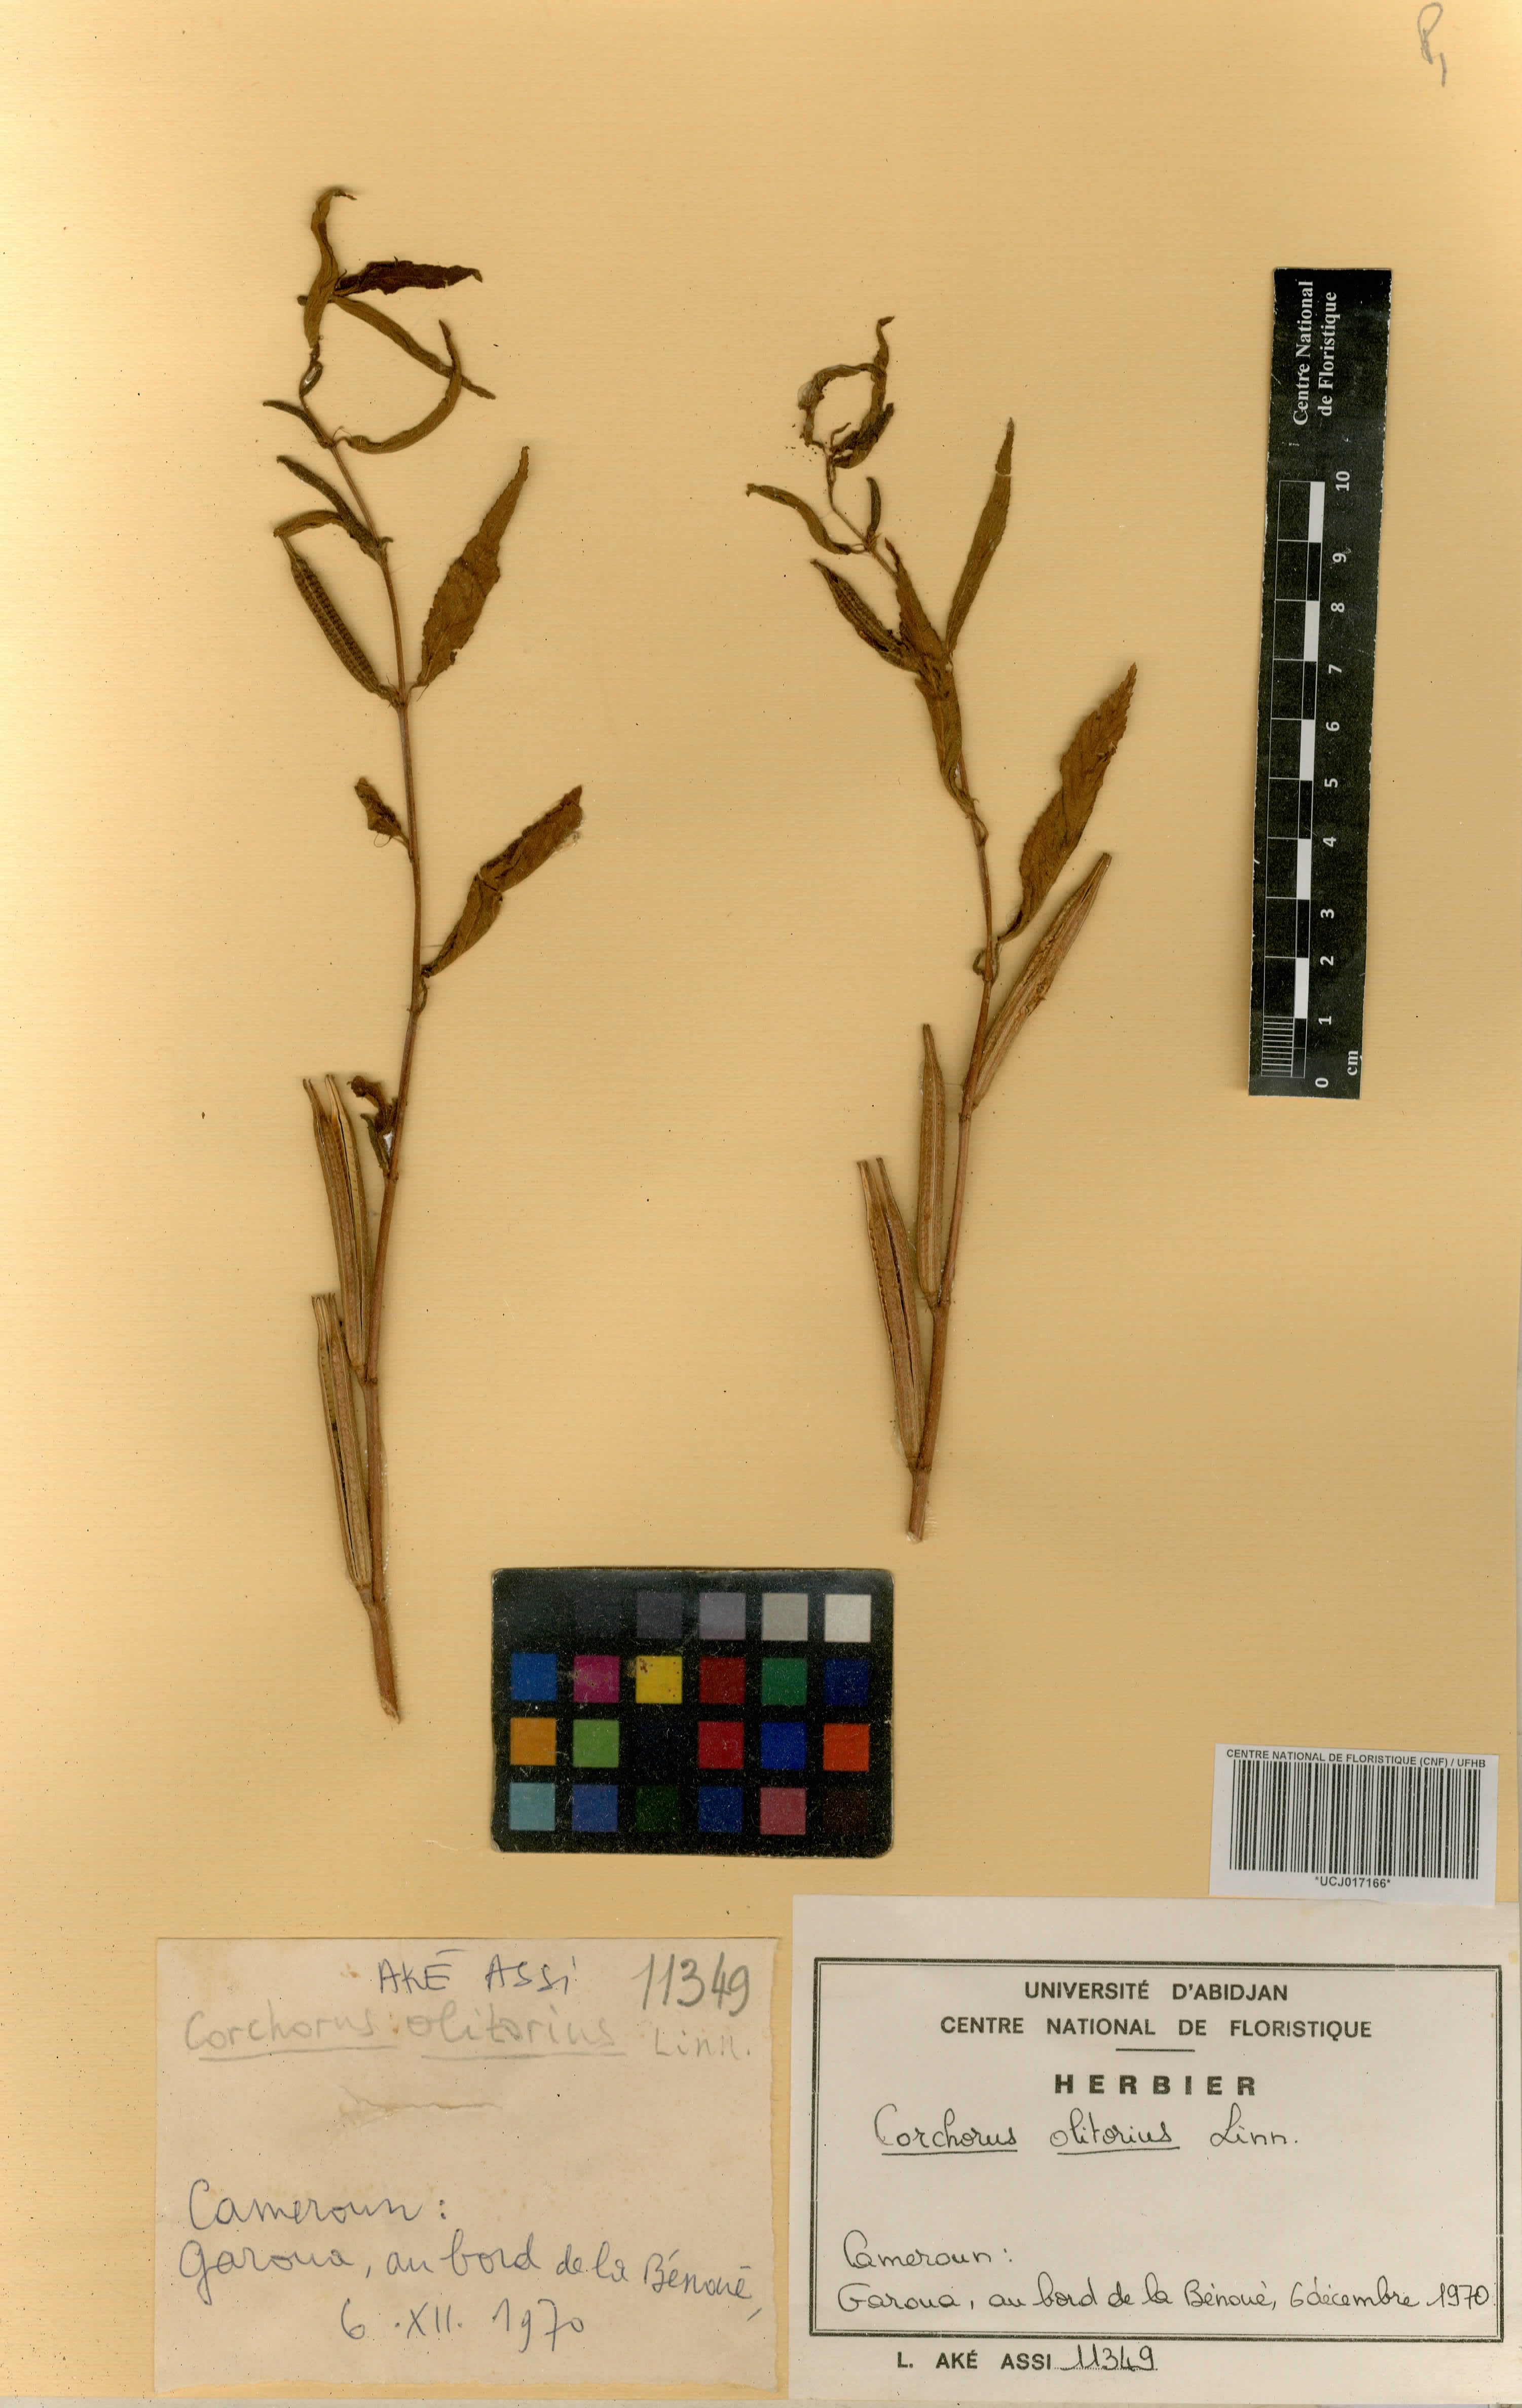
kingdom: Plantae
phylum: Tracheophyta
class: Magnoliopsida
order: Malvales
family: Malvaceae
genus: Corchorus
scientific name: Corchorus olitorius
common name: Tossa jute
